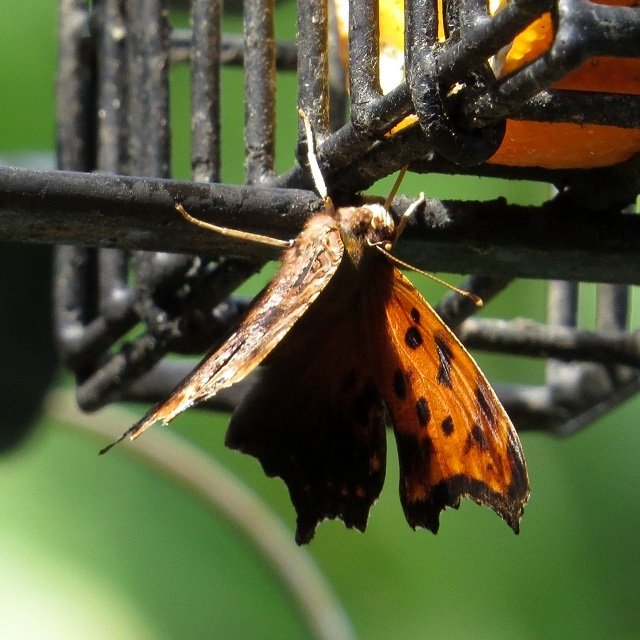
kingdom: Animalia
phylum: Arthropoda
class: Insecta
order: Lepidoptera
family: Nymphalidae
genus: Polygonia
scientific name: Polygonia comma
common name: Eastern Comma
